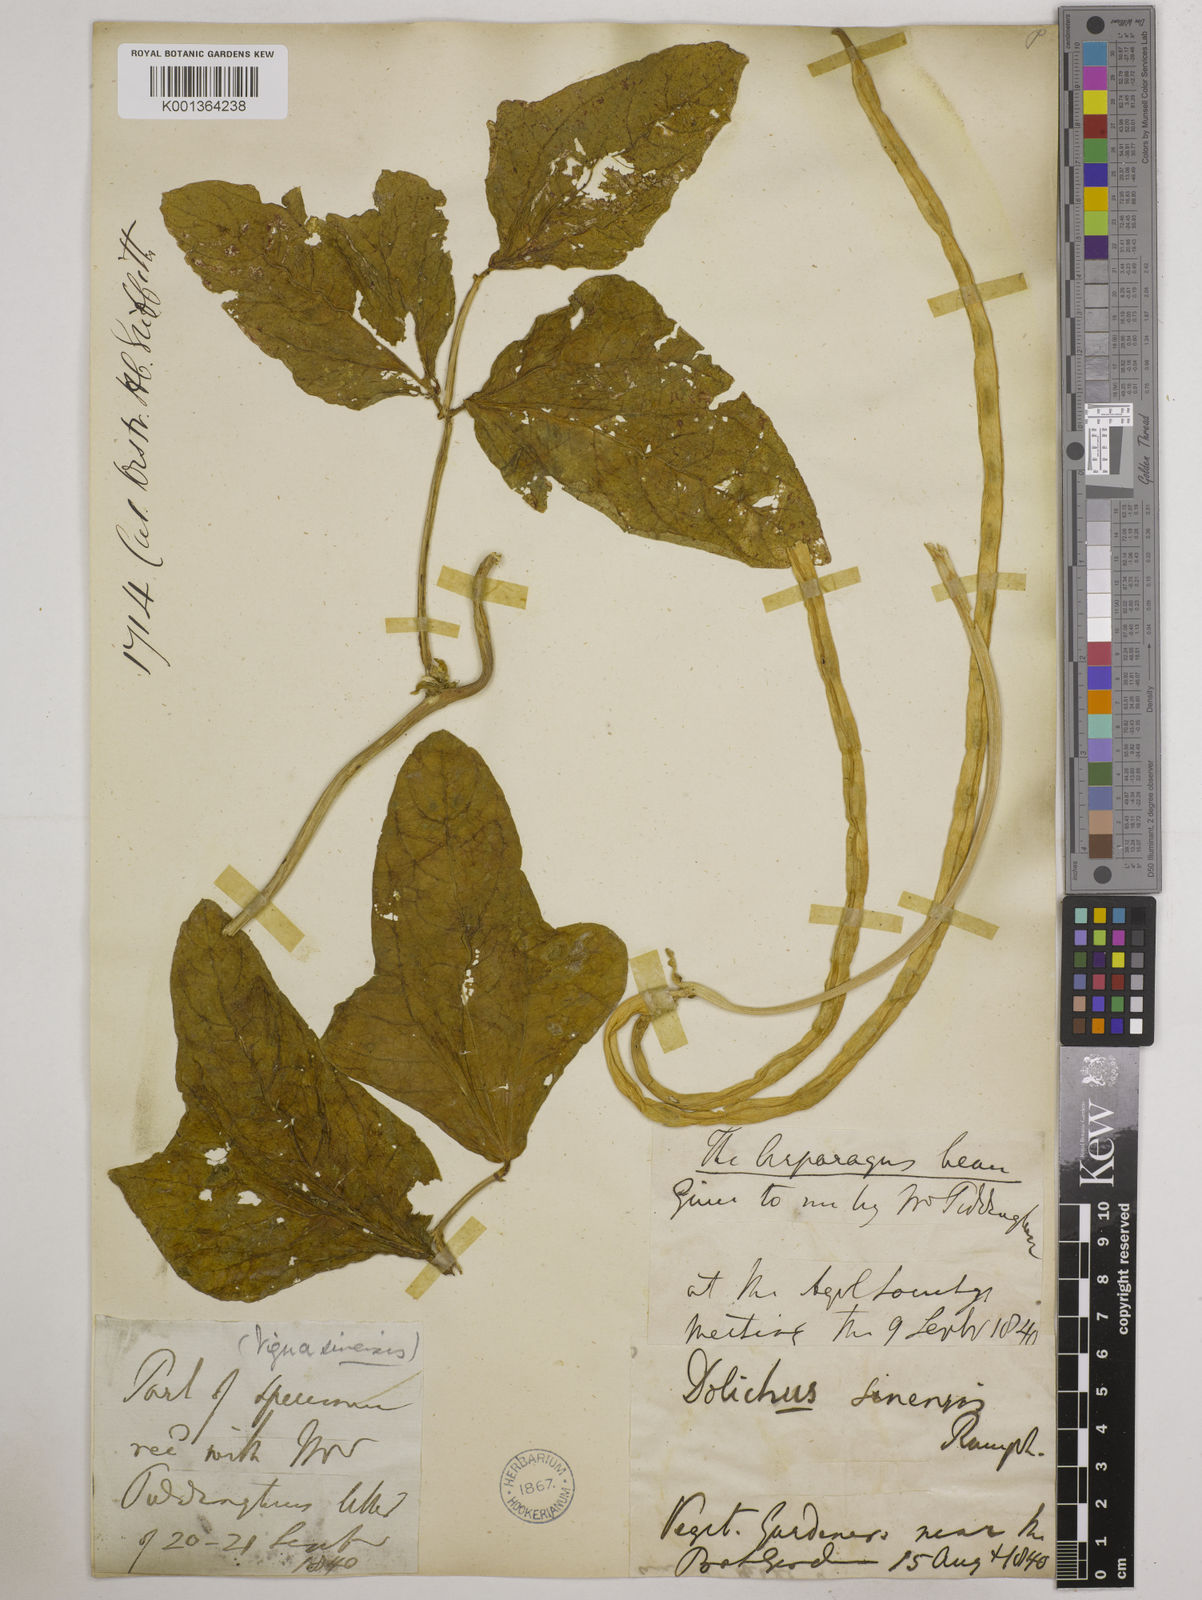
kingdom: Plantae
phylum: Tracheophyta
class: Magnoliopsida
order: Fabales
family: Fabaceae
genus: Vigna
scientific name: Vigna unguiculata
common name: Cowpea
